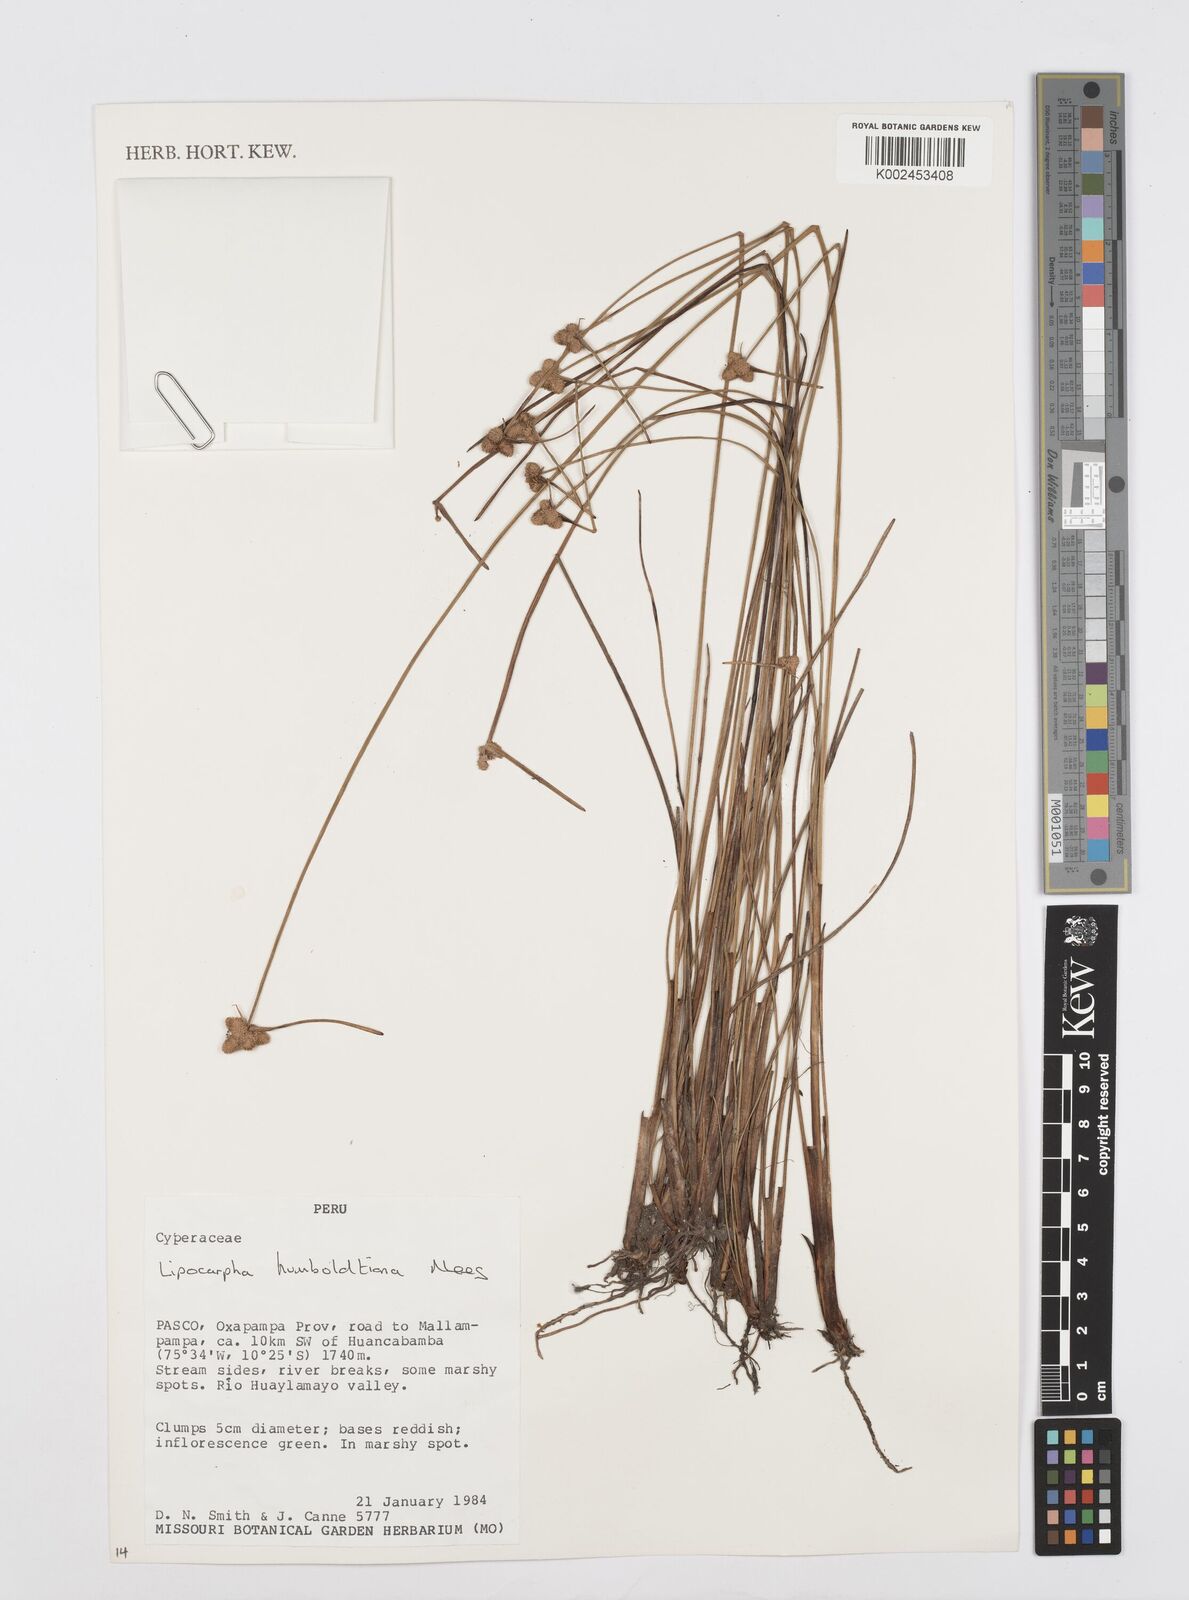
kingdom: Plantae
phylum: Tracheophyta
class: Liliopsida
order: Poales
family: Cyperaceae
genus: Cyperus
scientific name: Cyperus lanceolatus
